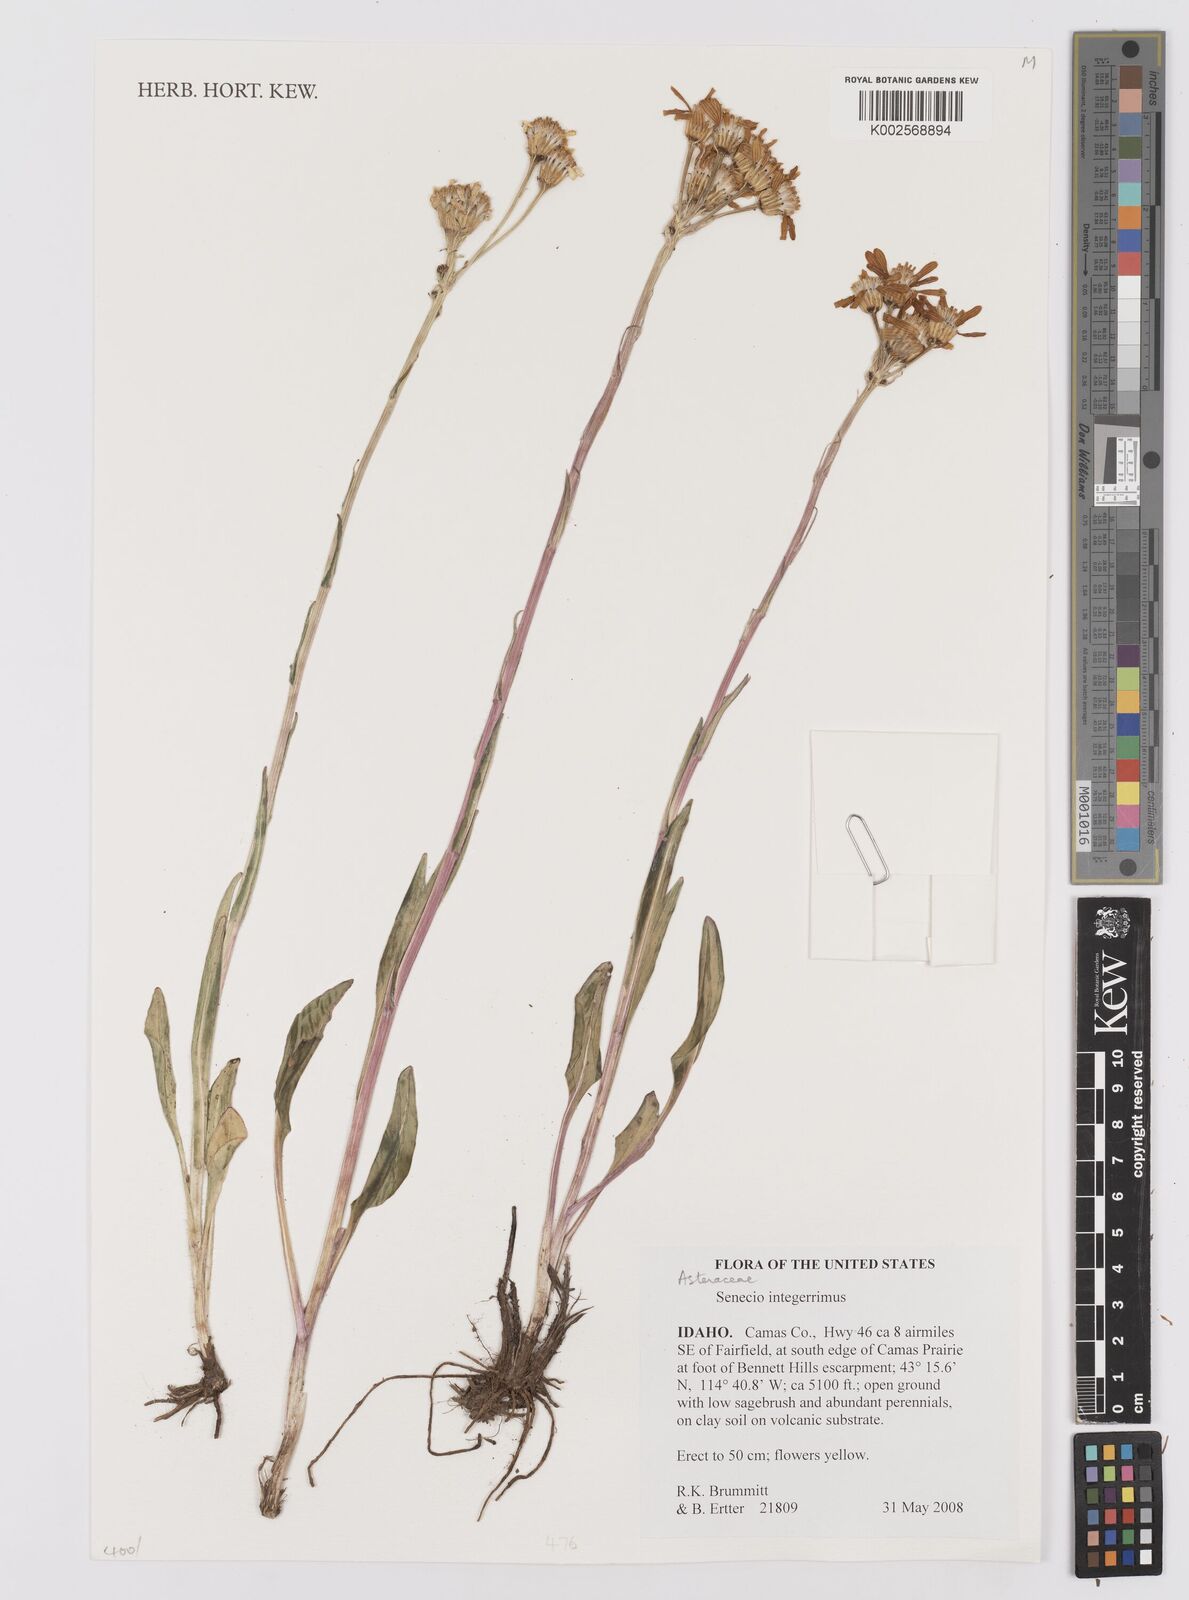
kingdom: Plantae
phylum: Tracheophyta
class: Magnoliopsida
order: Asterales
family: Asteraceae
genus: Senecio
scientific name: Senecio integerrimus
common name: Gaugeplant
